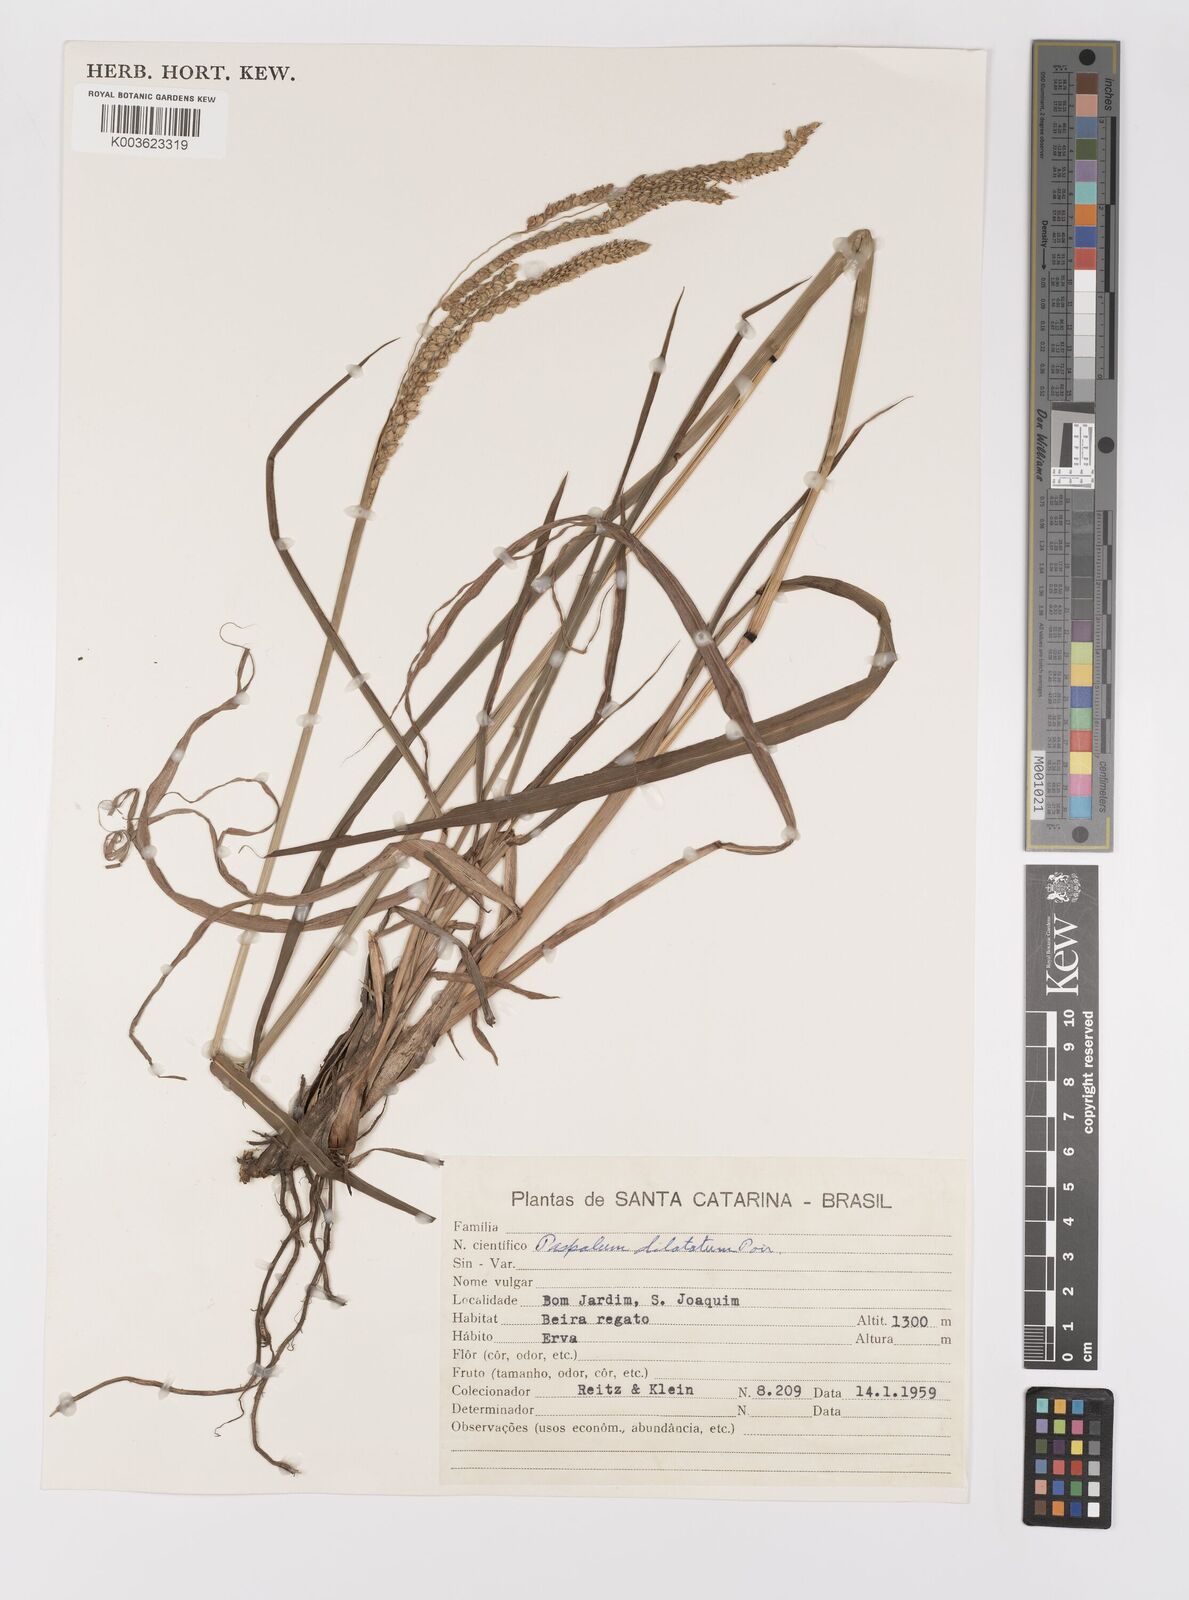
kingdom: Plantae
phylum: Tracheophyta
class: Liliopsida
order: Poales
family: Poaceae
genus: Paspalum
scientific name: Paspalum dilatatum
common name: Dallisgrass
